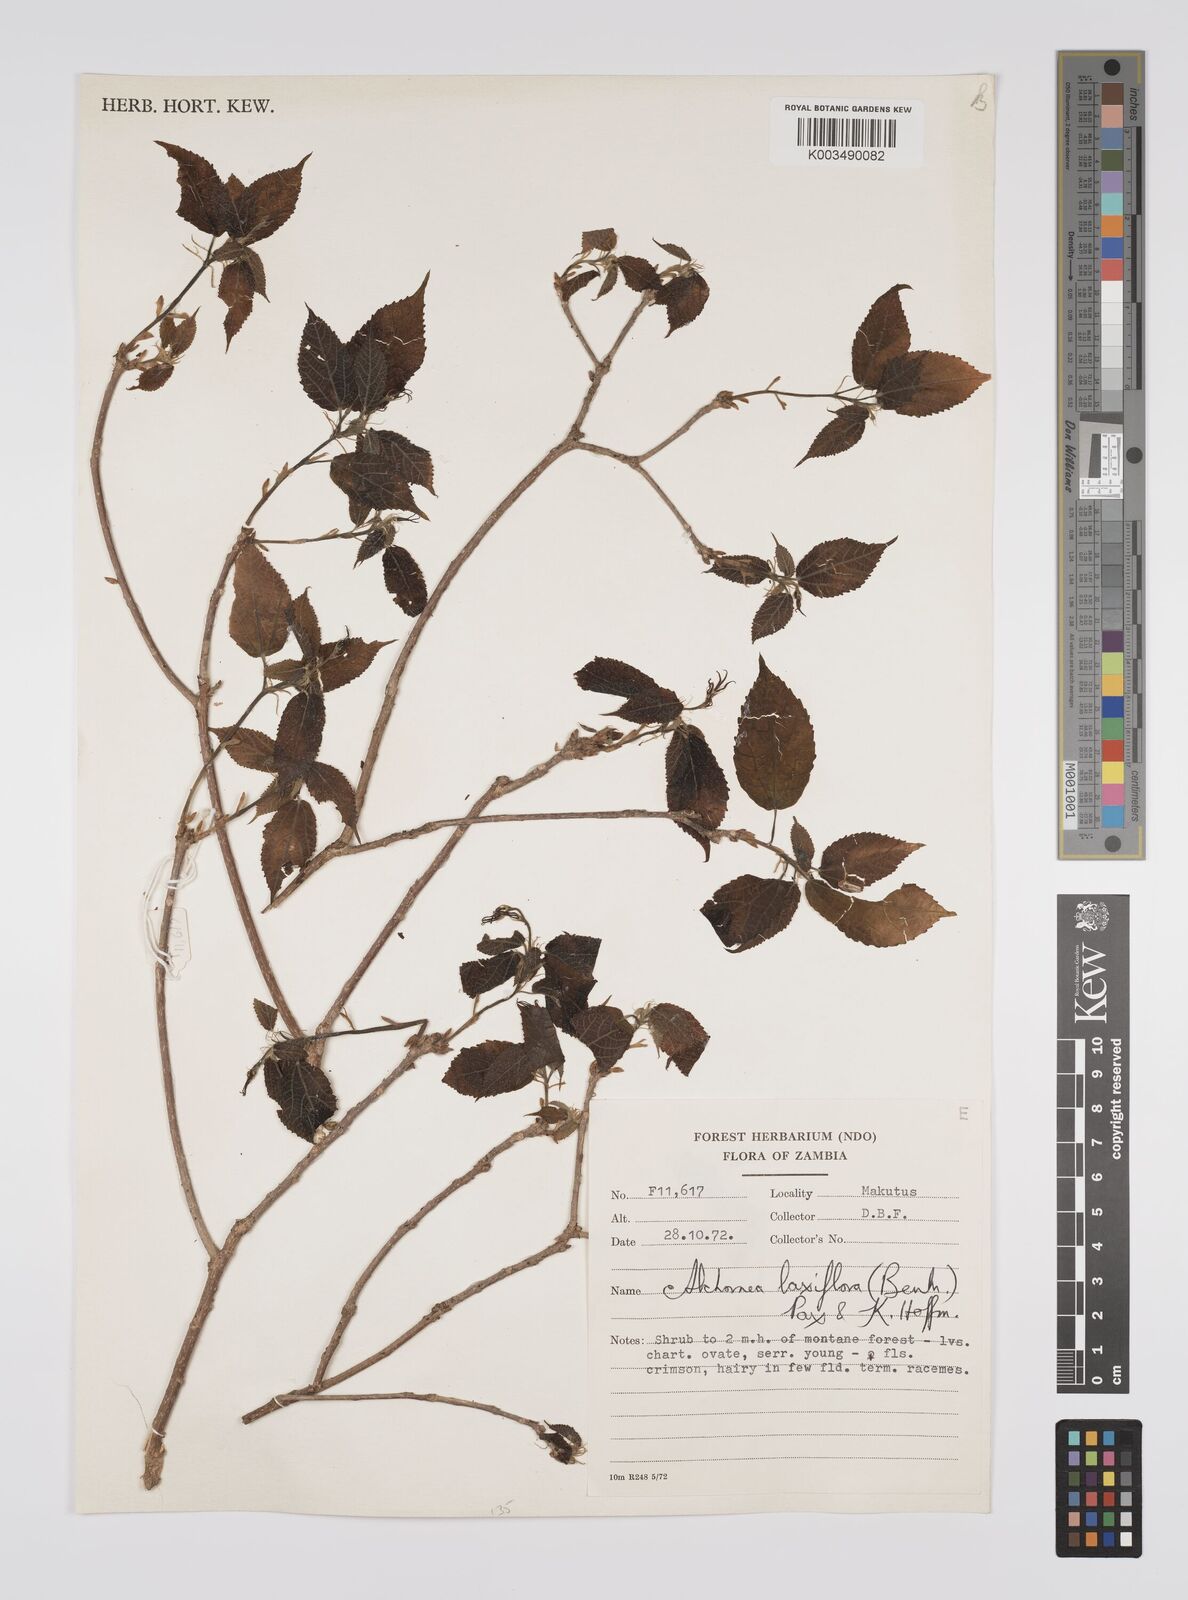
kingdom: Plantae
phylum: Tracheophyta
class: Magnoliopsida
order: Malpighiales
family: Euphorbiaceae
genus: Alchornea
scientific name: Alchornea laxiflora
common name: Lowveld bead-string
